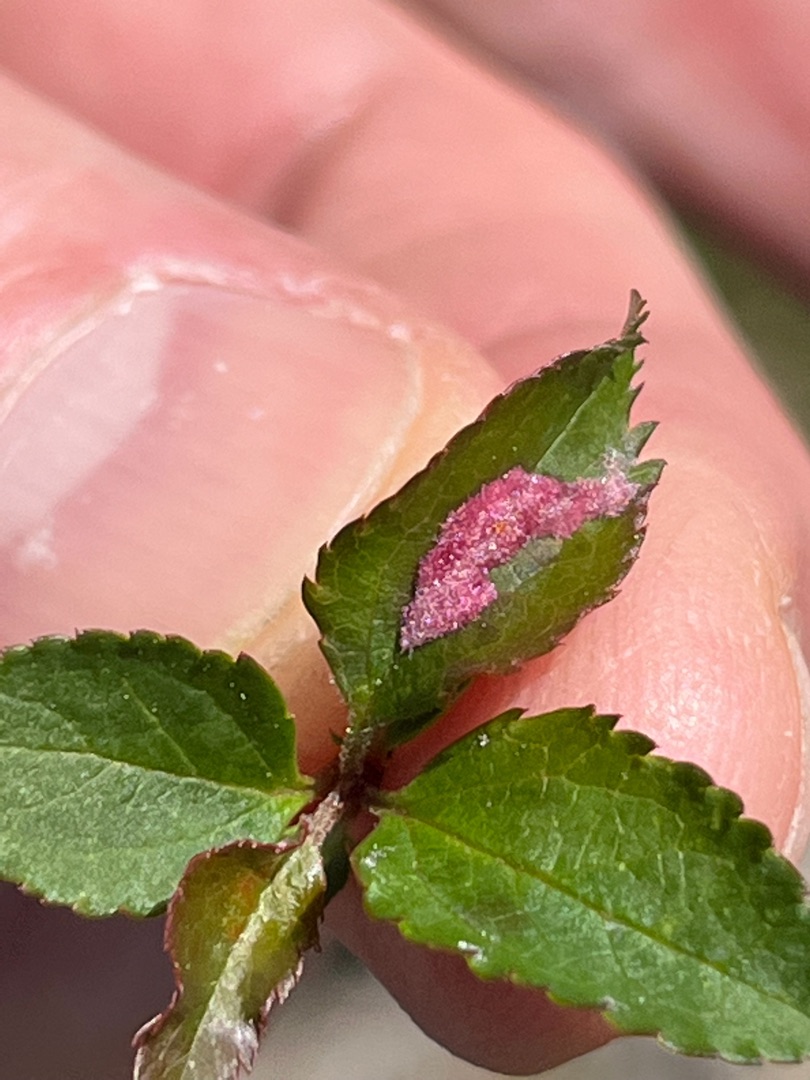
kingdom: Animalia
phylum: Arthropoda
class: Arachnida
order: Trombidiformes
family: Eriophyidae
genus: Phyllocoptes
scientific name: Phyllocoptes malinus
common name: Æblefiltgalmide
